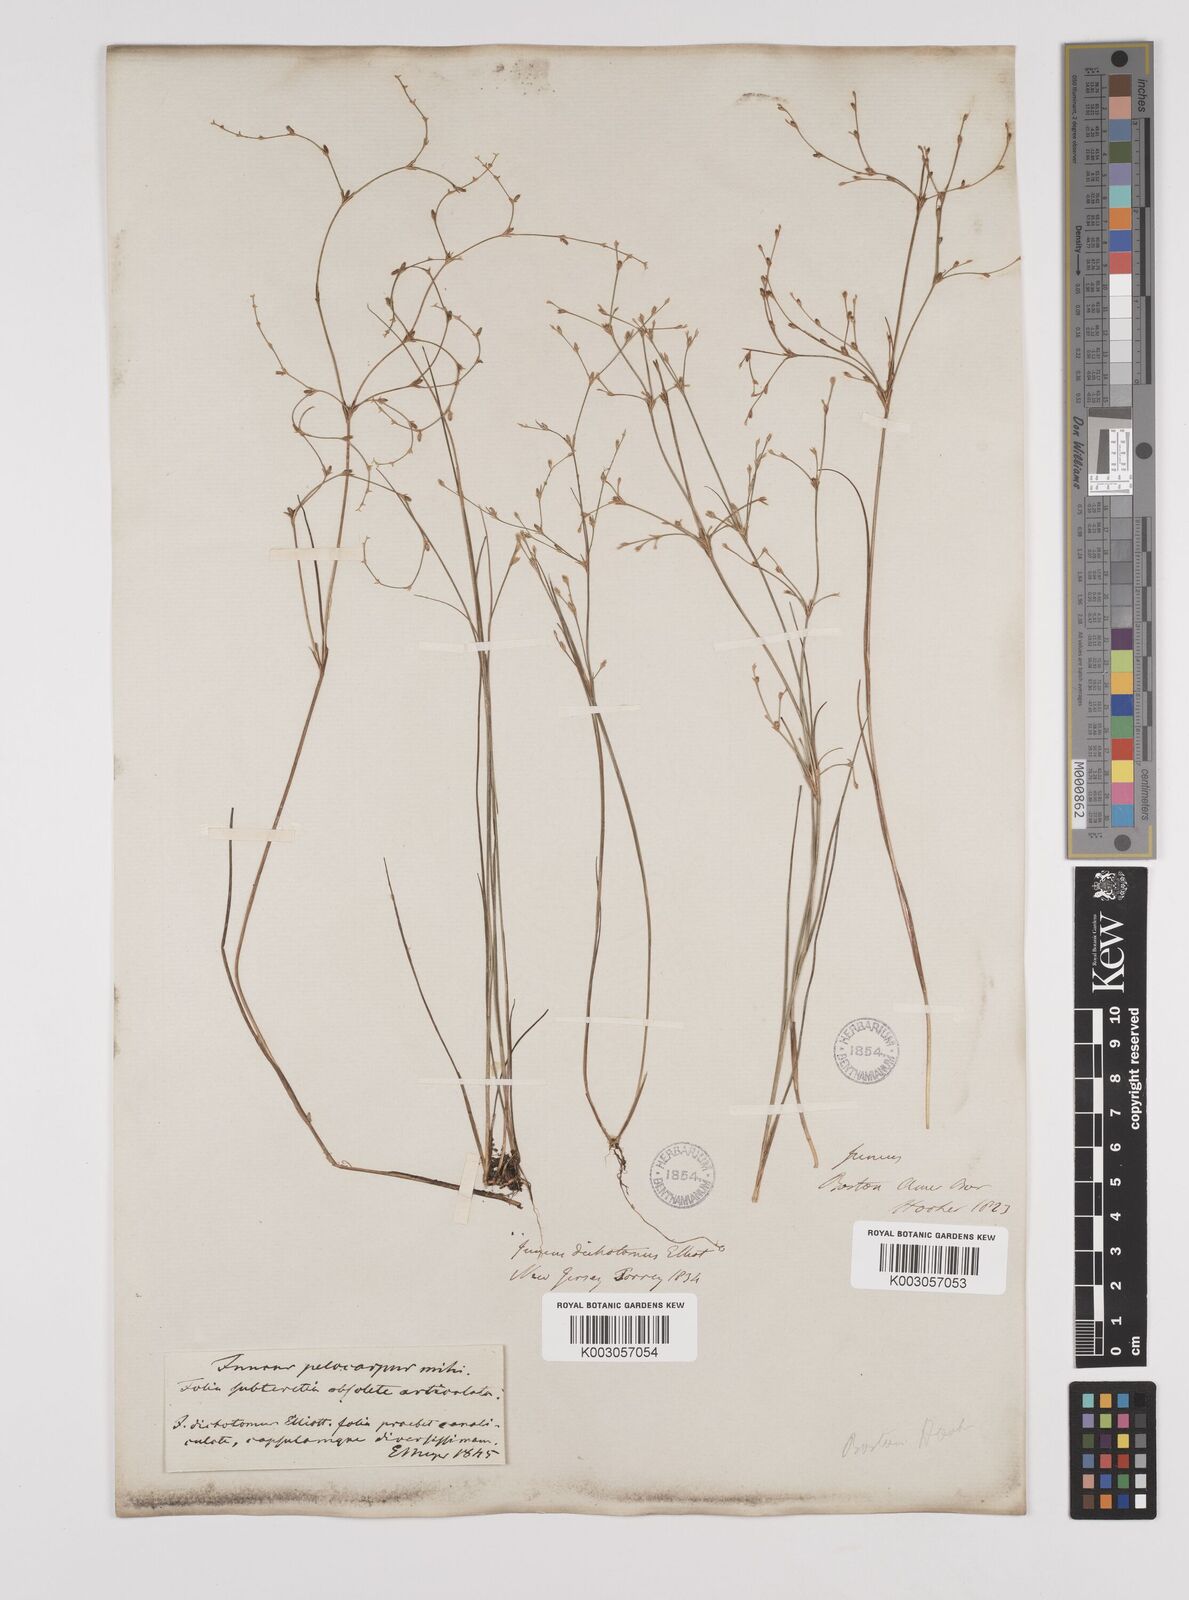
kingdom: Plantae
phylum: Tracheophyta
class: Liliopsida
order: Poales
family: Juncaceae
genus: Juncus
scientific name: Juncus pelocarpus
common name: Brown-fruited rush
